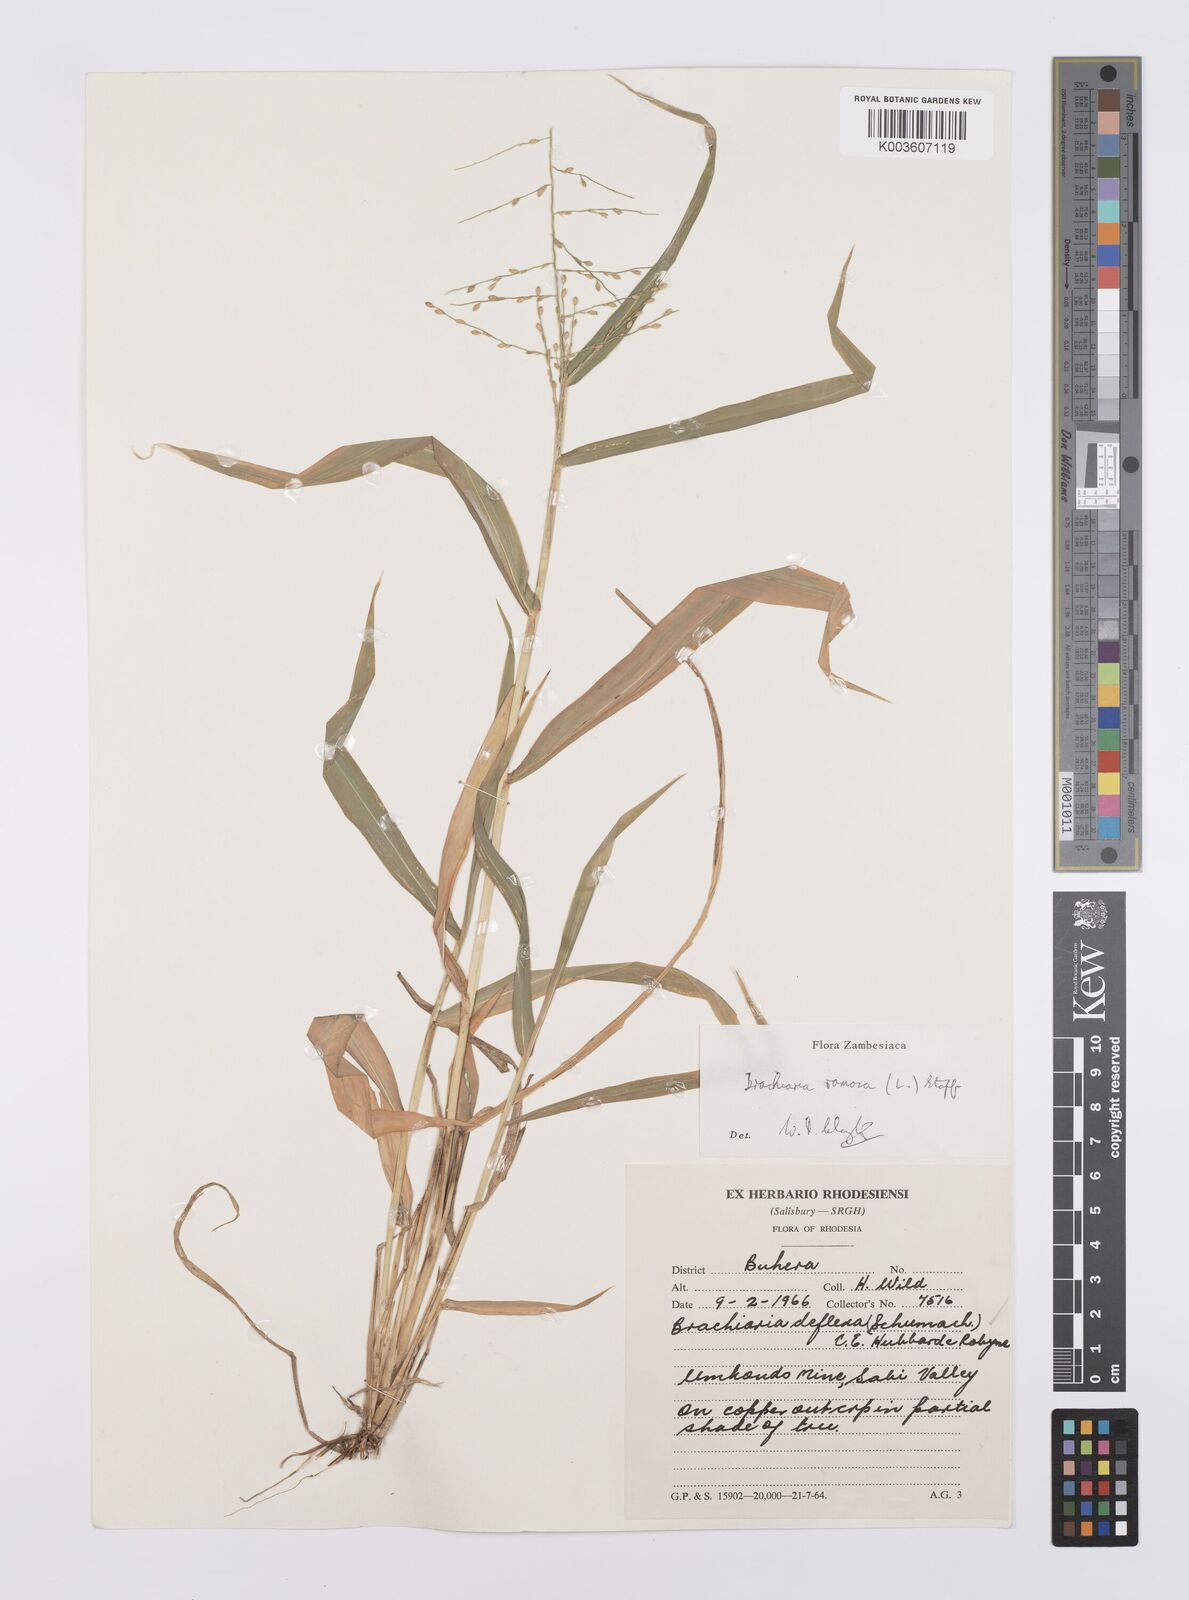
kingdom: Plantae
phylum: Tracheophyta
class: Liliopsida
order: Poales
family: Poaceae
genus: Urochloa
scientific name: Urochloa ramosa
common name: Browntop millet
